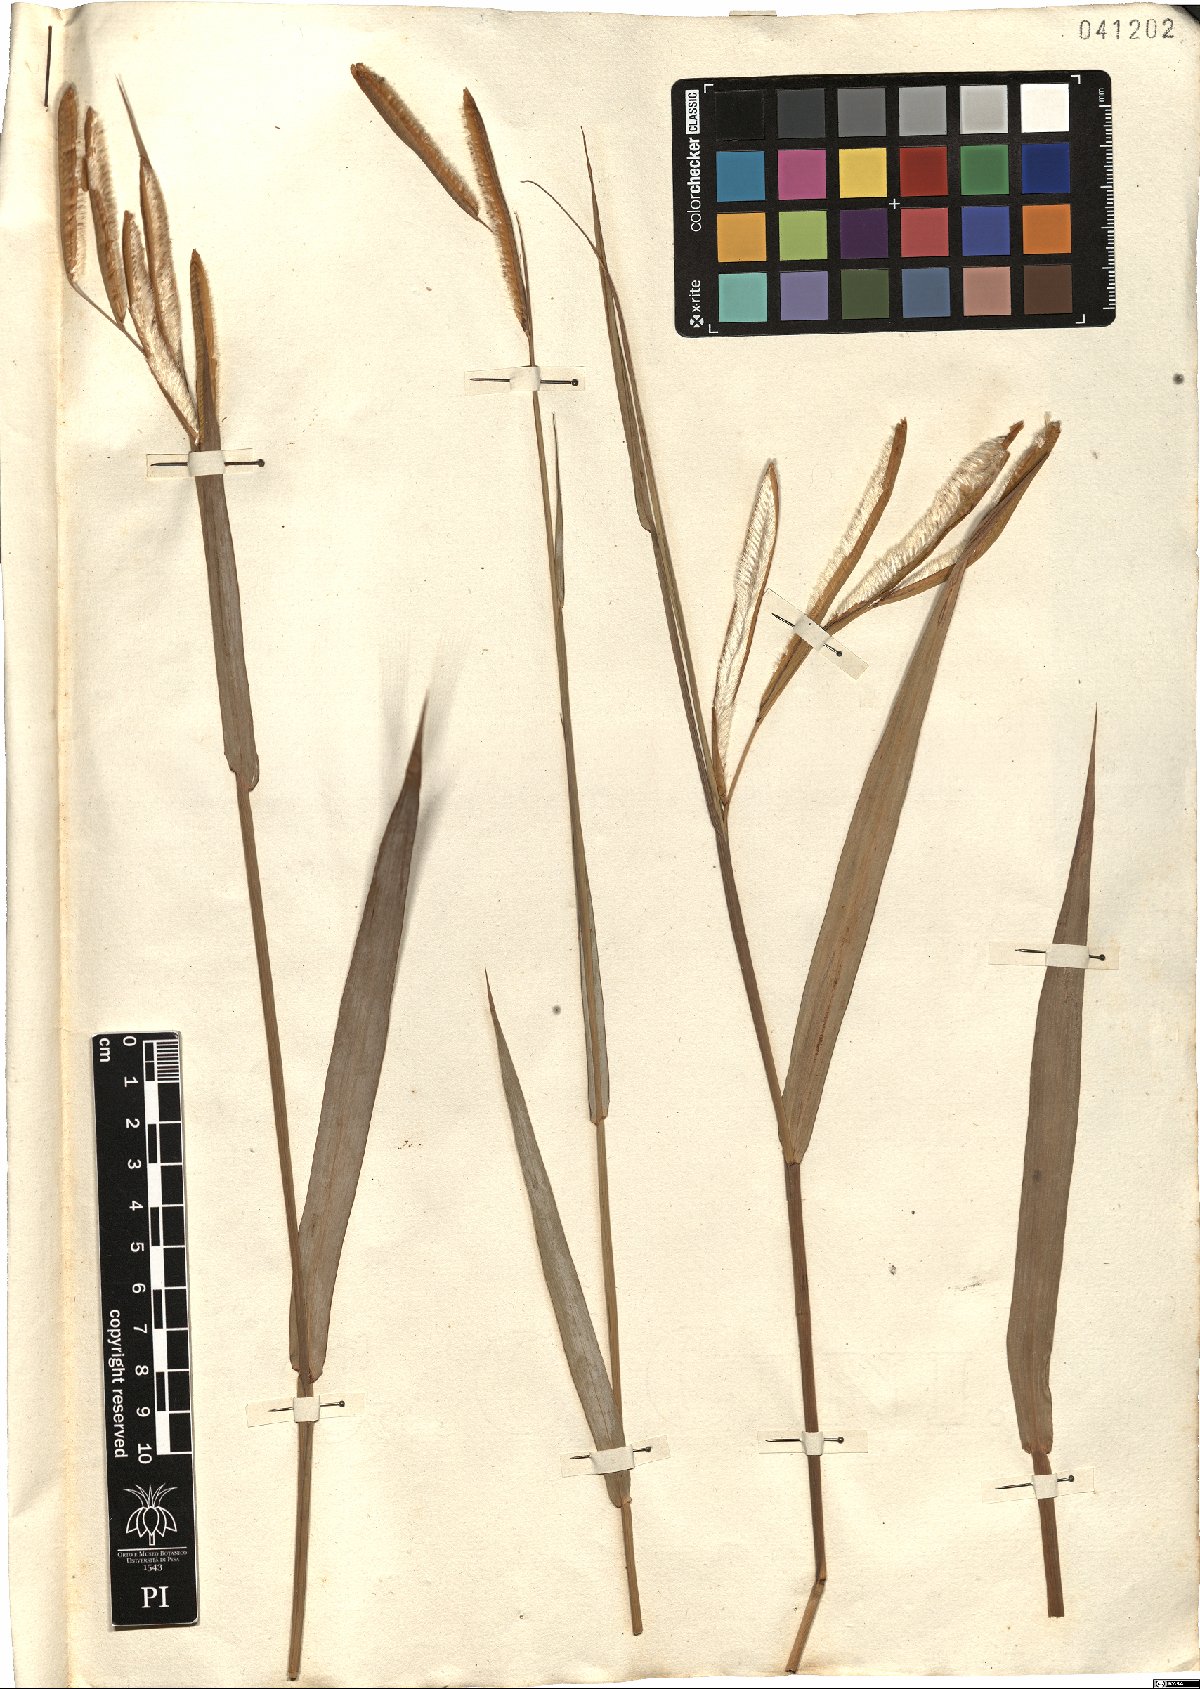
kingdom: Plantae
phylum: Tracheophyta
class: Liliopsida
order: Poales
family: Poaceae
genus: Paspalum
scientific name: Paspalum ceresia
